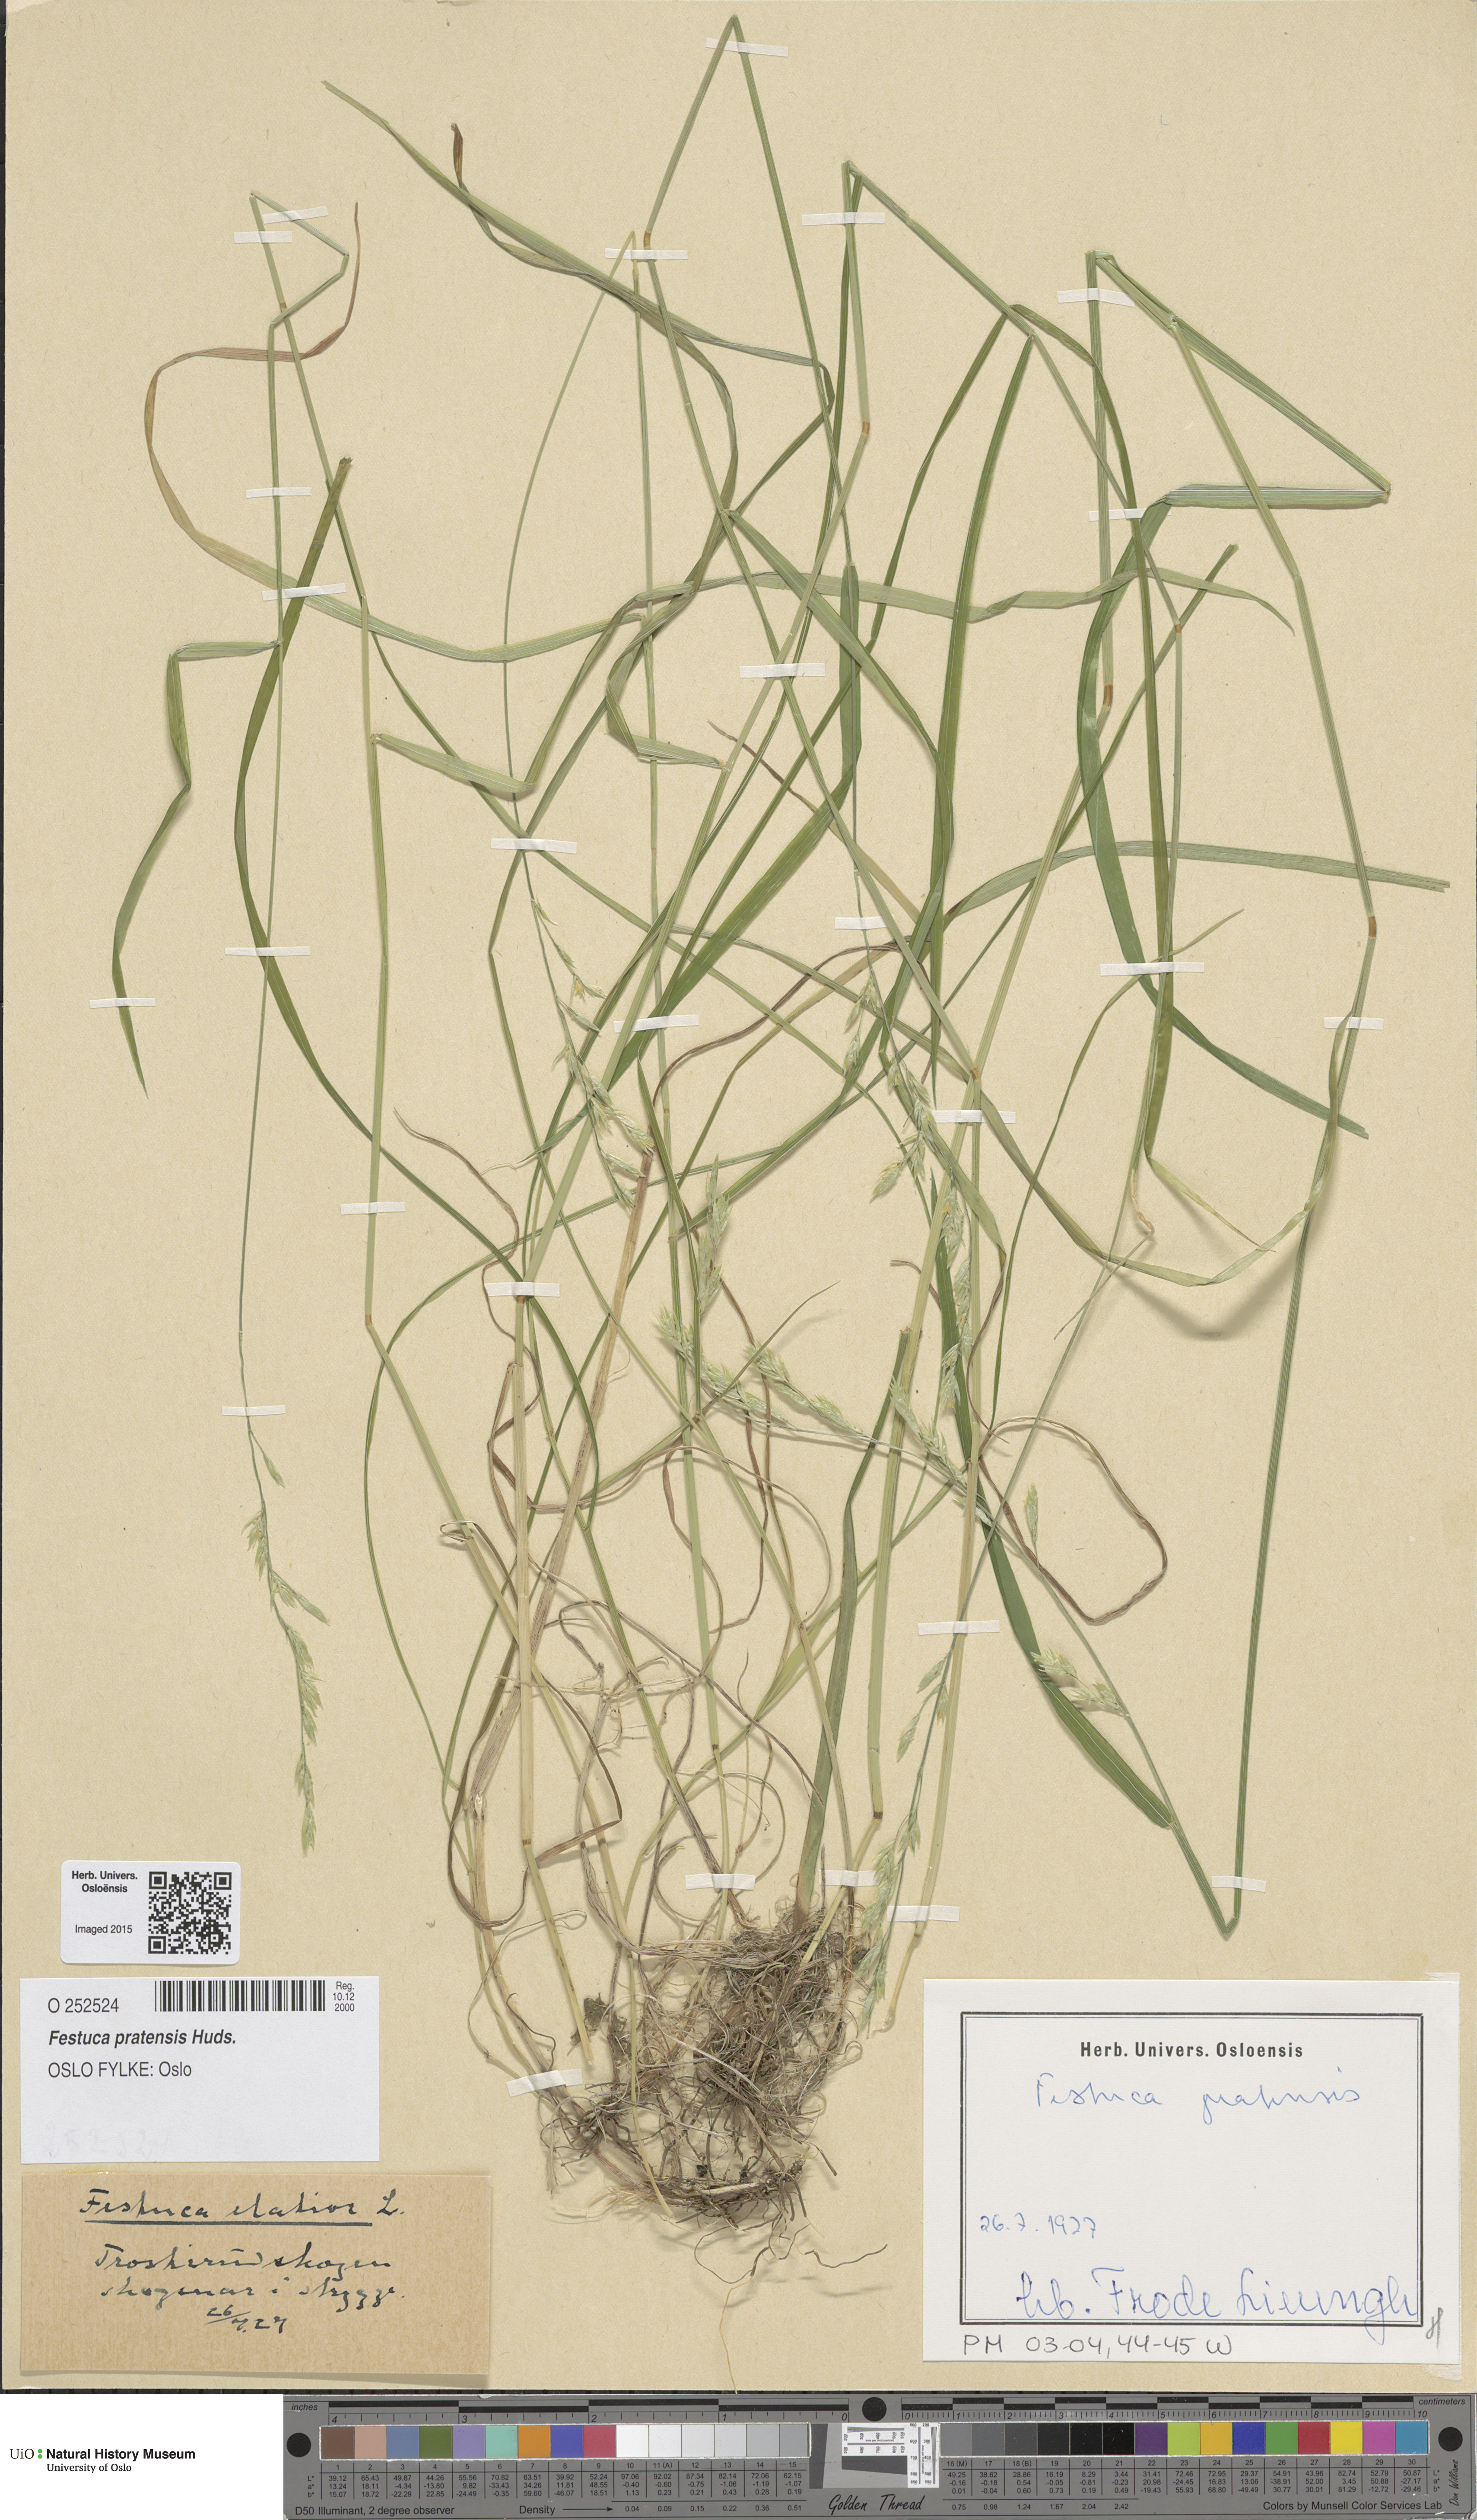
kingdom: Plantae
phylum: Tracheophyta
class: Liliopsida
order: Poales
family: Poaceae
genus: Lolium
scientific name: Lolium pratense
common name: Dover grass
